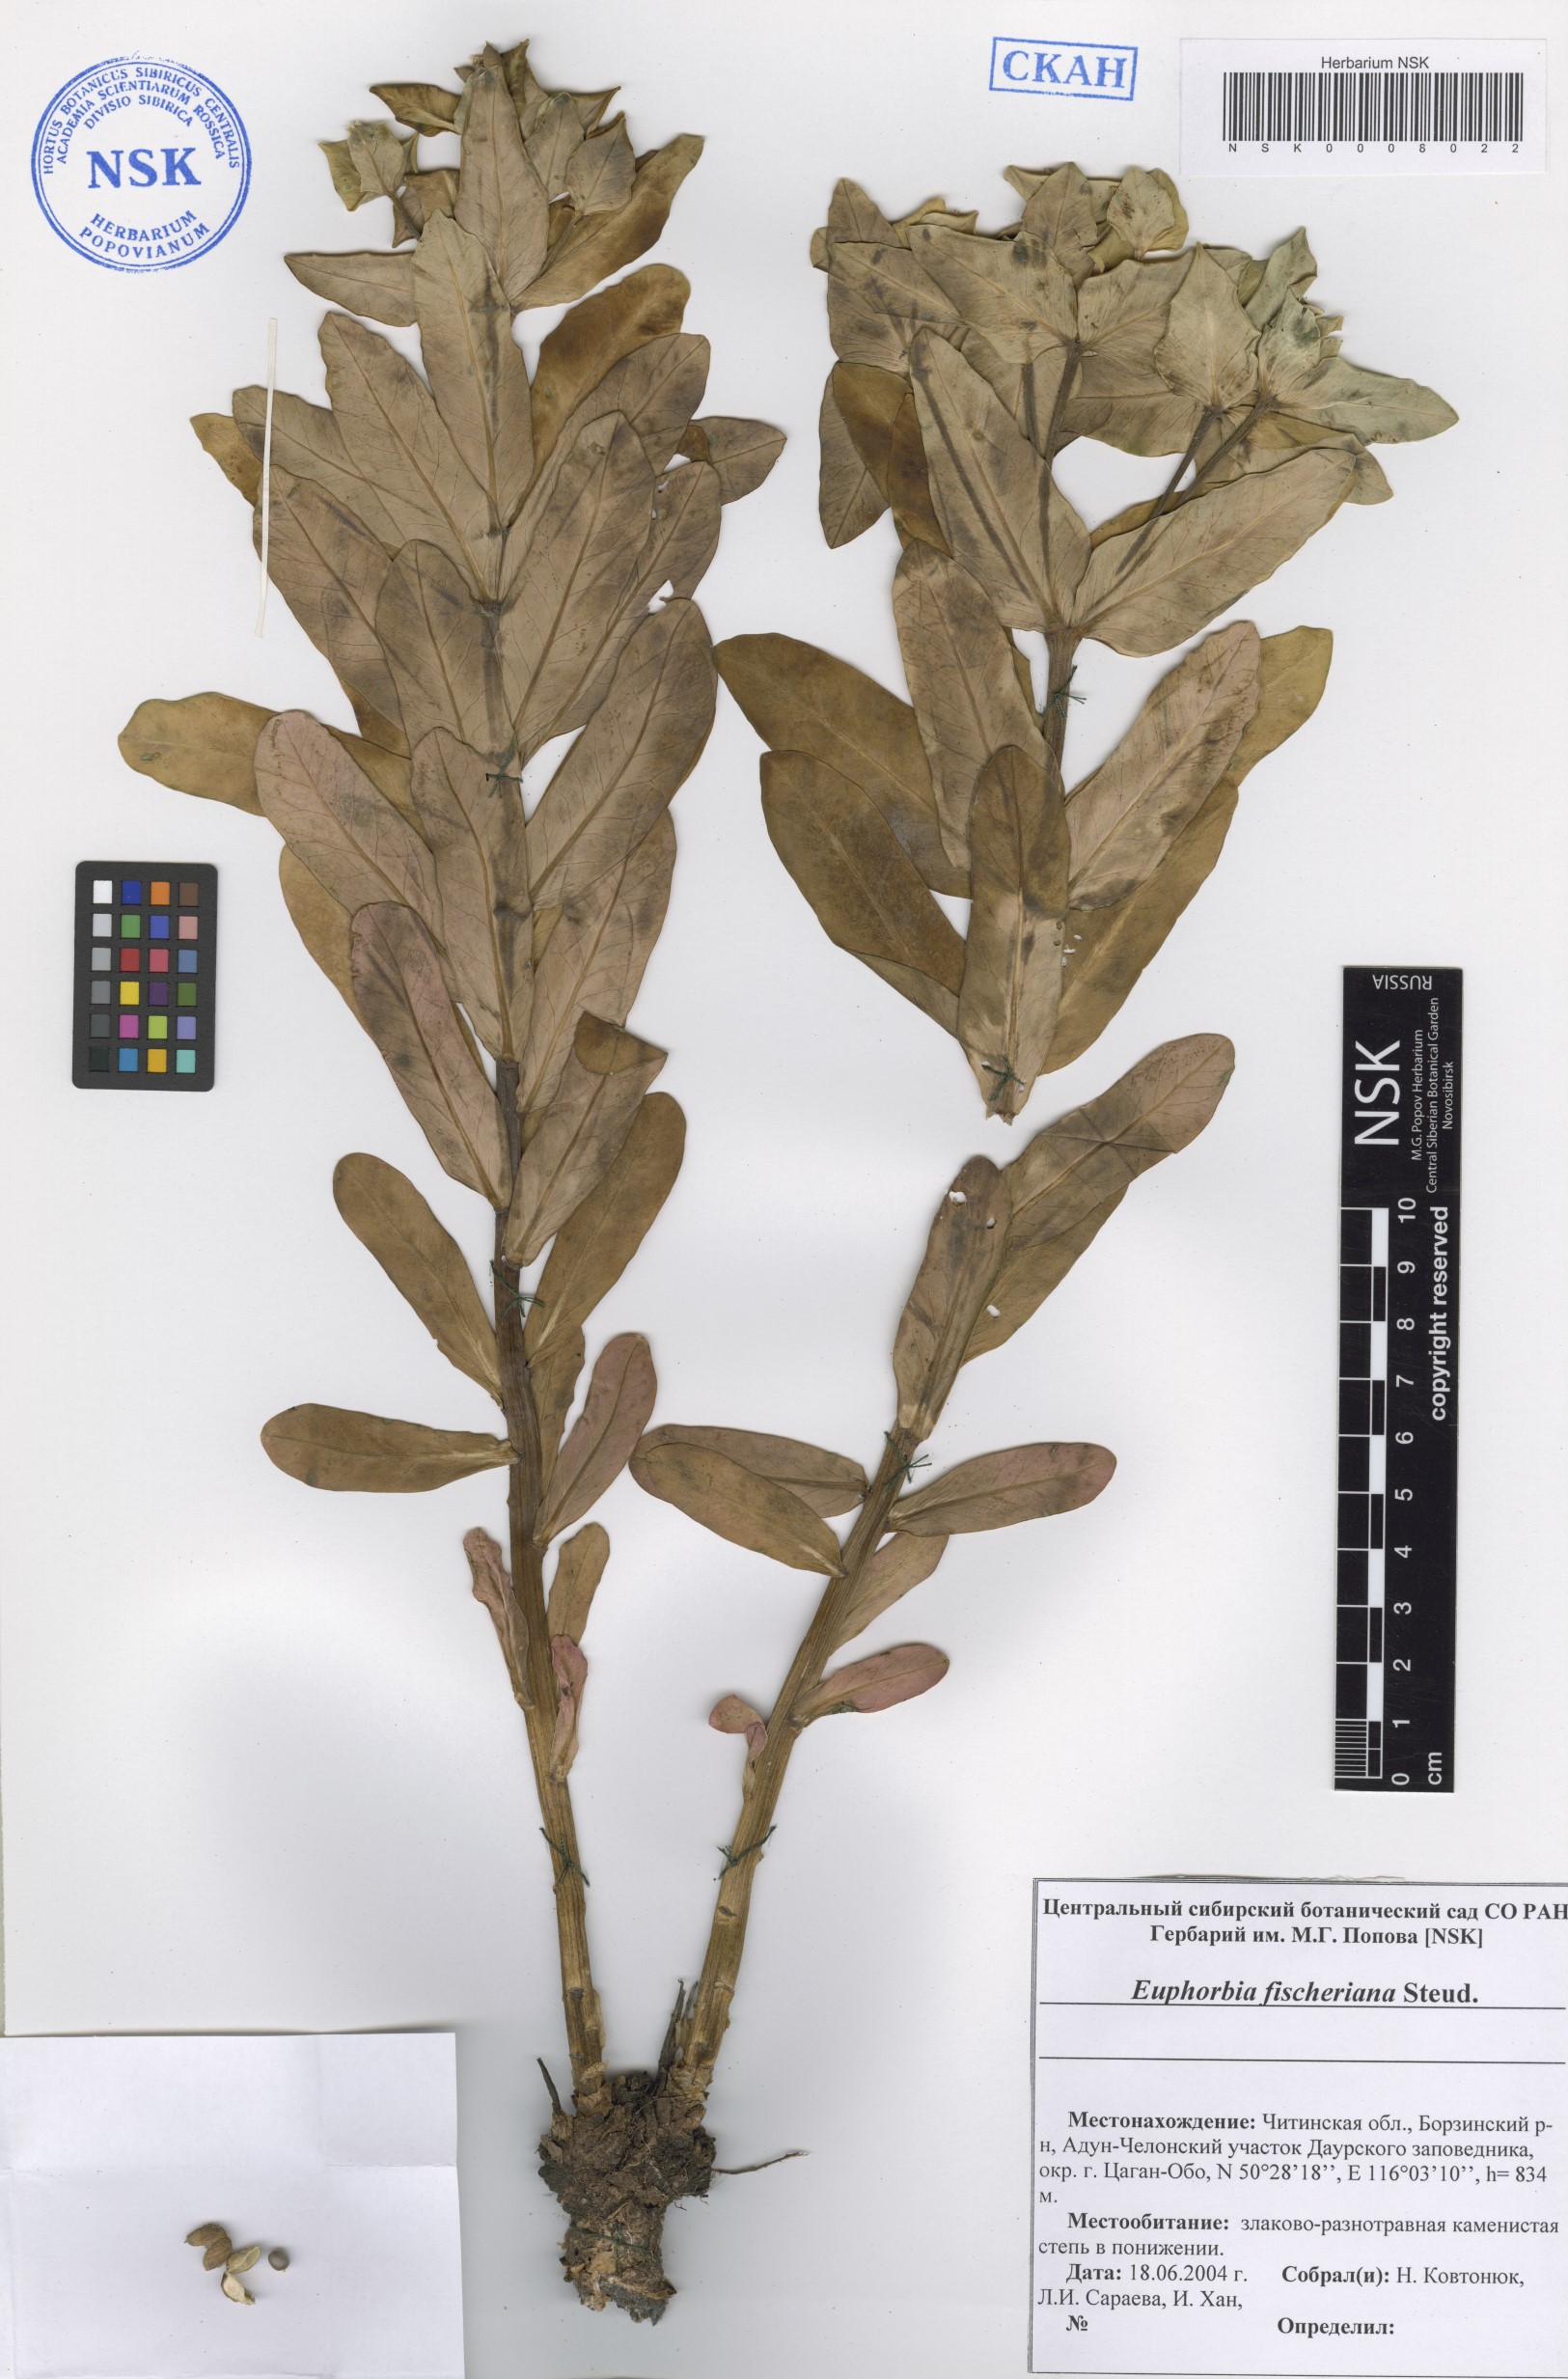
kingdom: Plantae
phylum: Tracheophyta
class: Magnoliopsida
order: Malpighiales
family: Euphorbiaceae
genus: Euphorbia
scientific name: Euphorbia fischeriana
